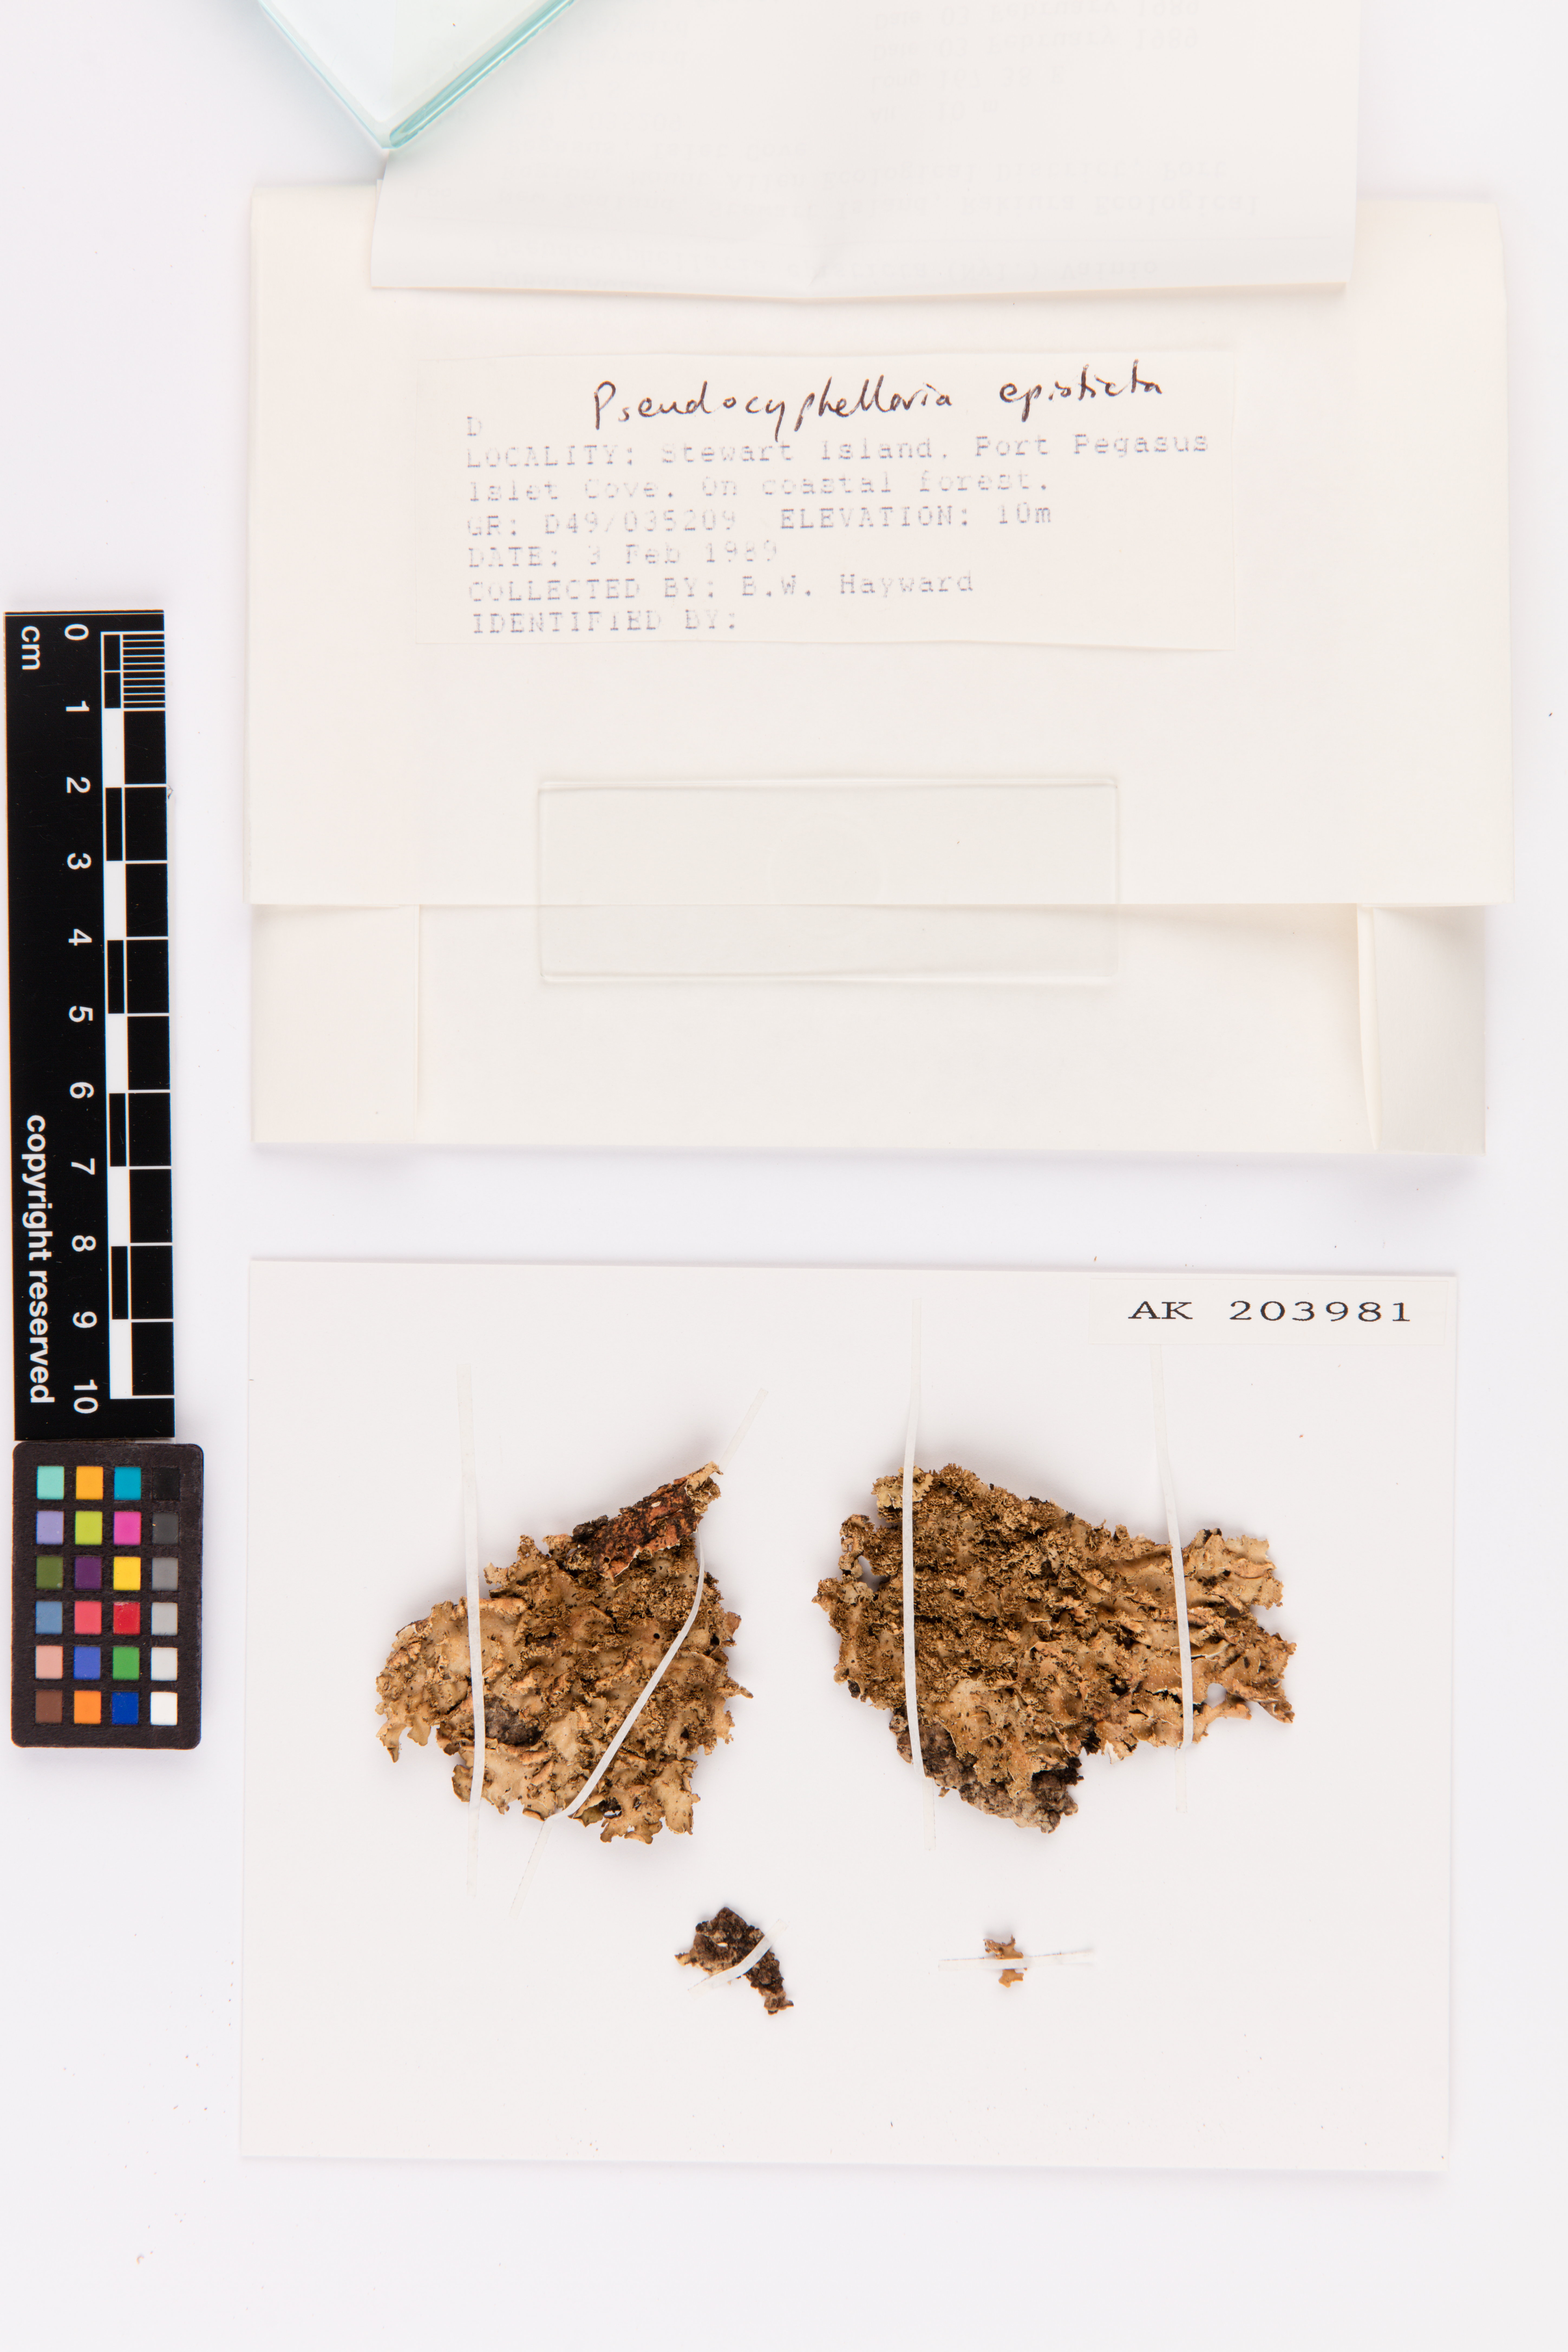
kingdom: Fungi
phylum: Ascomycota
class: Lecanoromycetes
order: Peltigerales
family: Lobariaceae
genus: Pseudocyphellaria
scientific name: Pseudocyphellaria episticta
